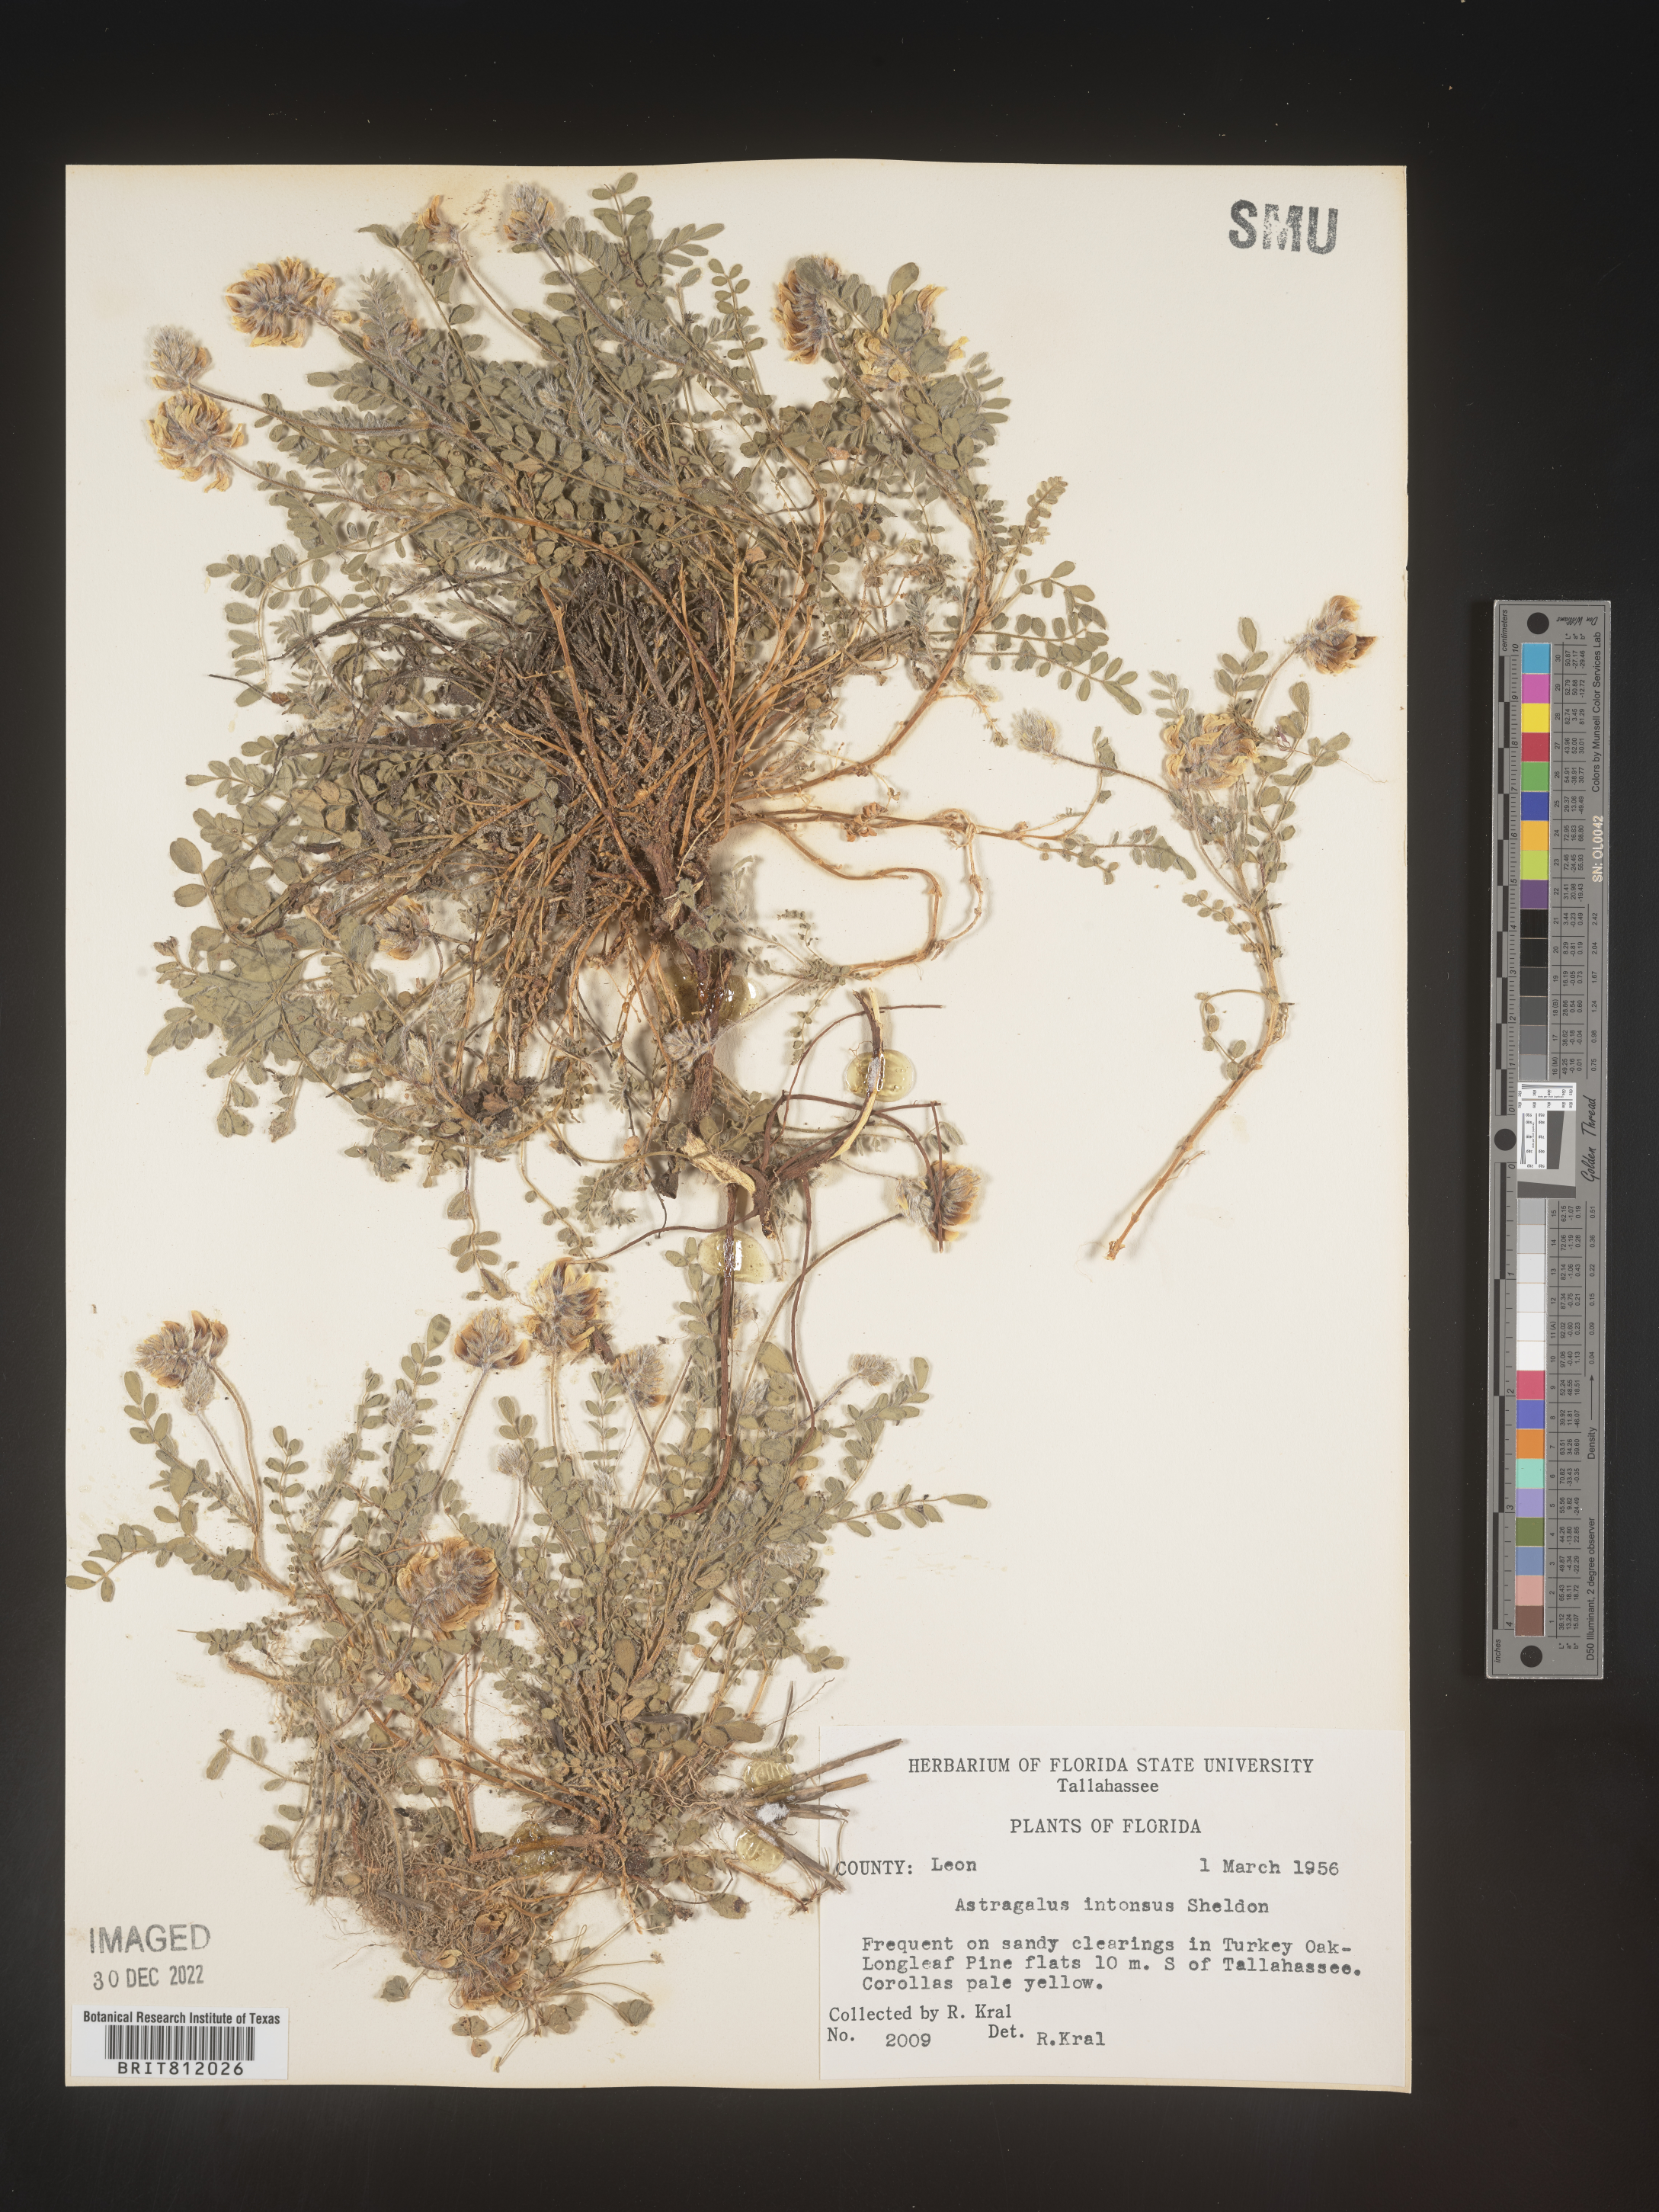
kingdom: Plantae
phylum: Tracheophyta
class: Magnoliopsida
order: Fabales
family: Fabaceae
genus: Astragalus
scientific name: Astragalus villosus
